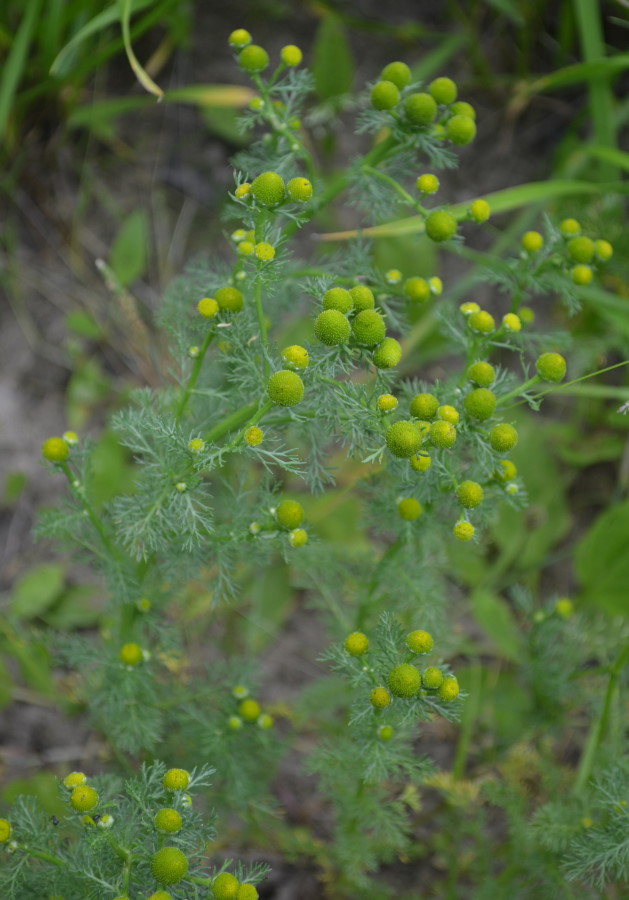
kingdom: Plantae
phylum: Tracheophyta
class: Magnoliopsida
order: Asterales
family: Asteraceae
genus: Matricaria
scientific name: Matricaria discoidea
